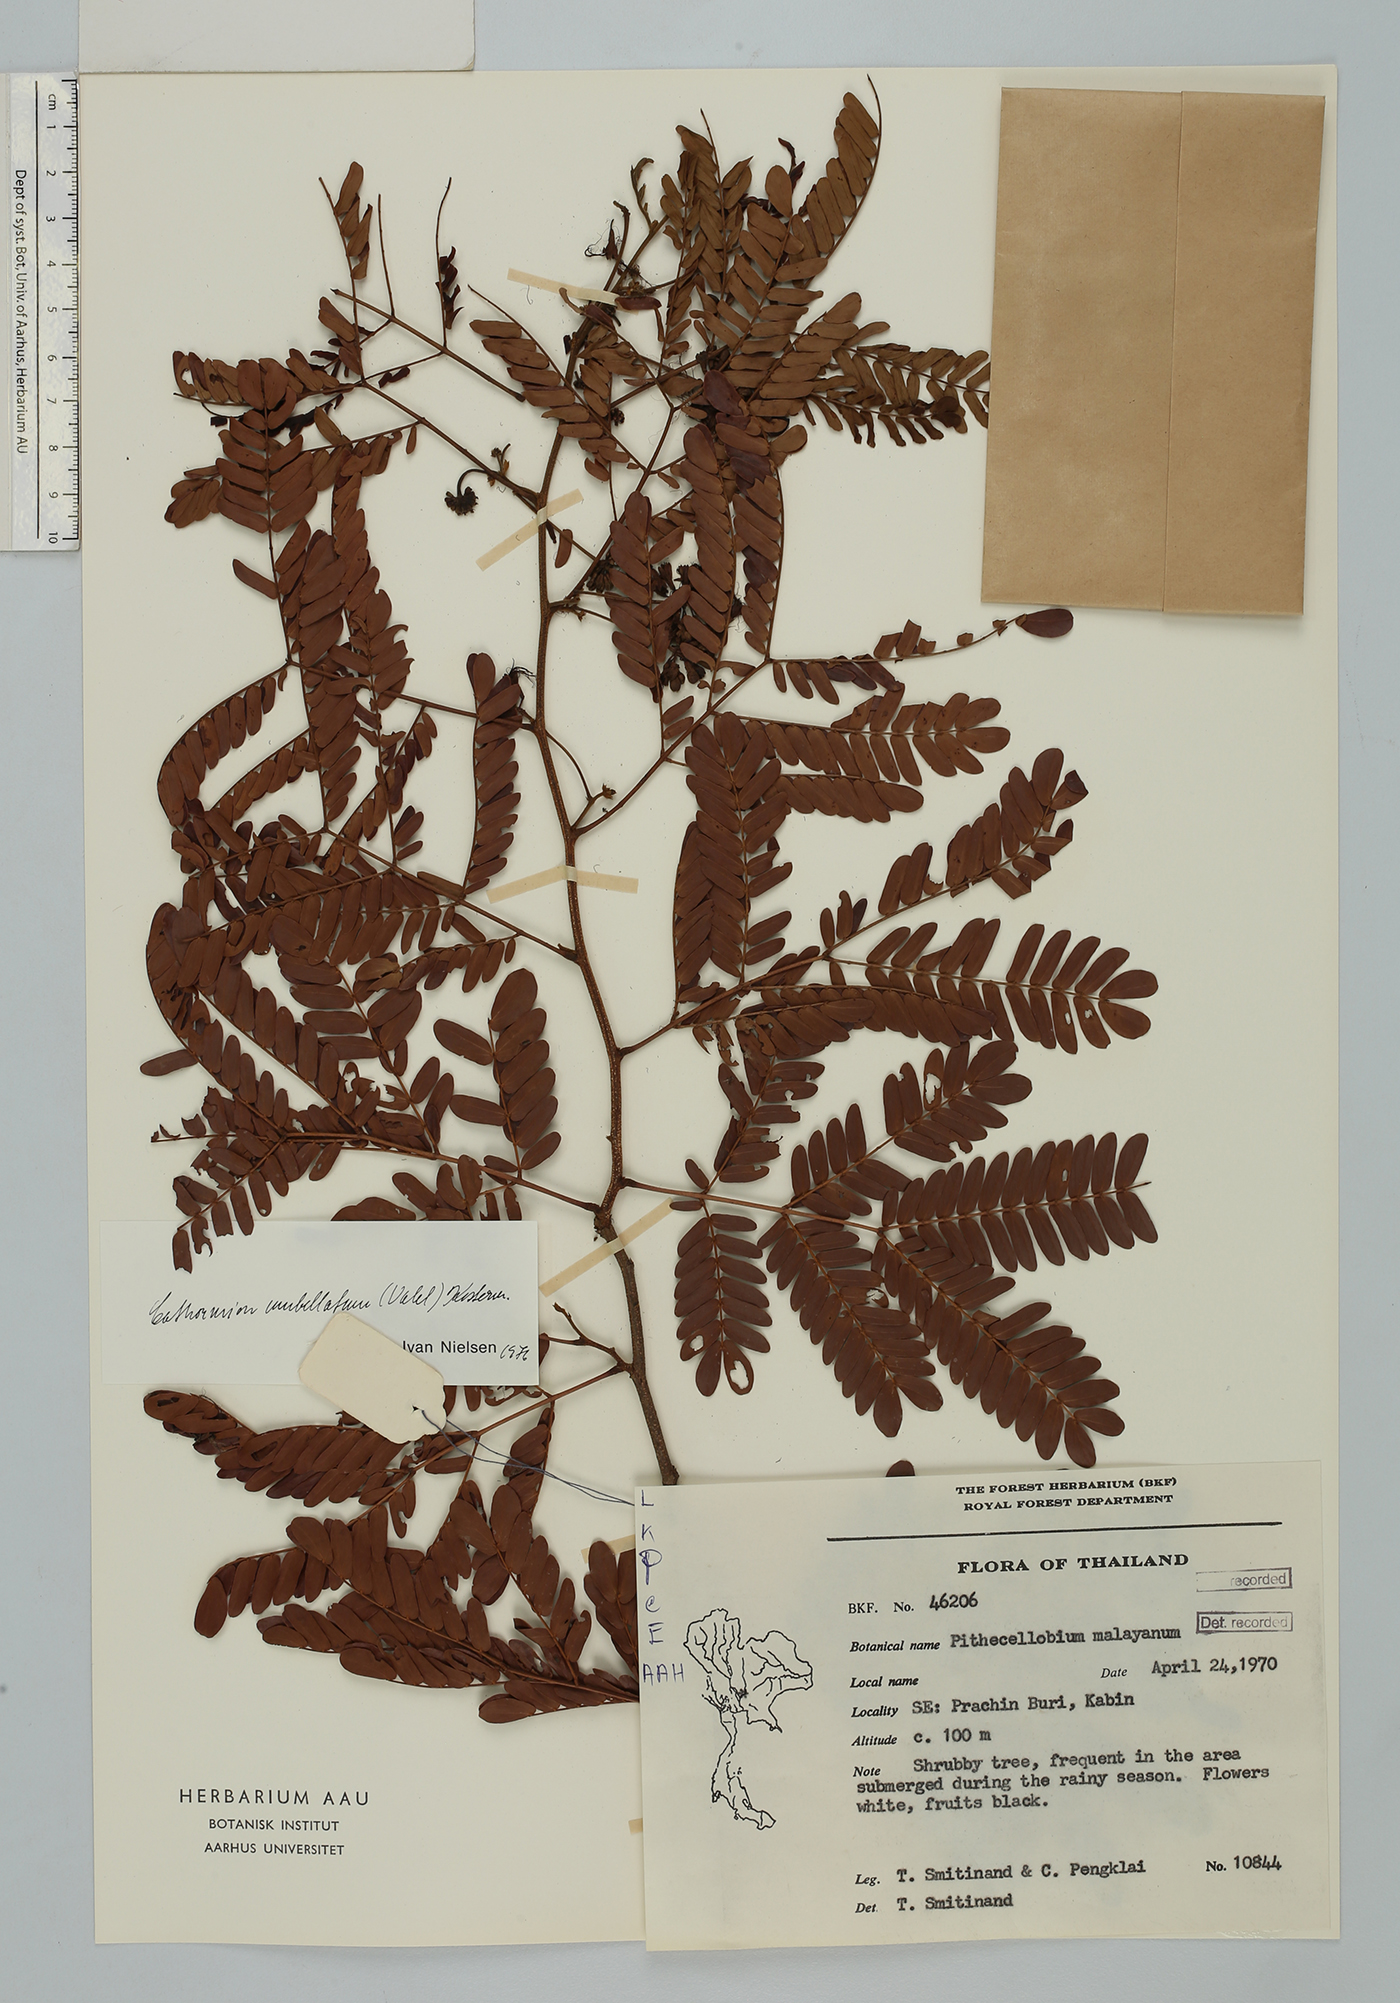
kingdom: Plantae
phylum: Tracheophyta
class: Magnoliopsida
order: Fabales
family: Fabaceae
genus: Cathormion
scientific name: Cathormion umbellatum
